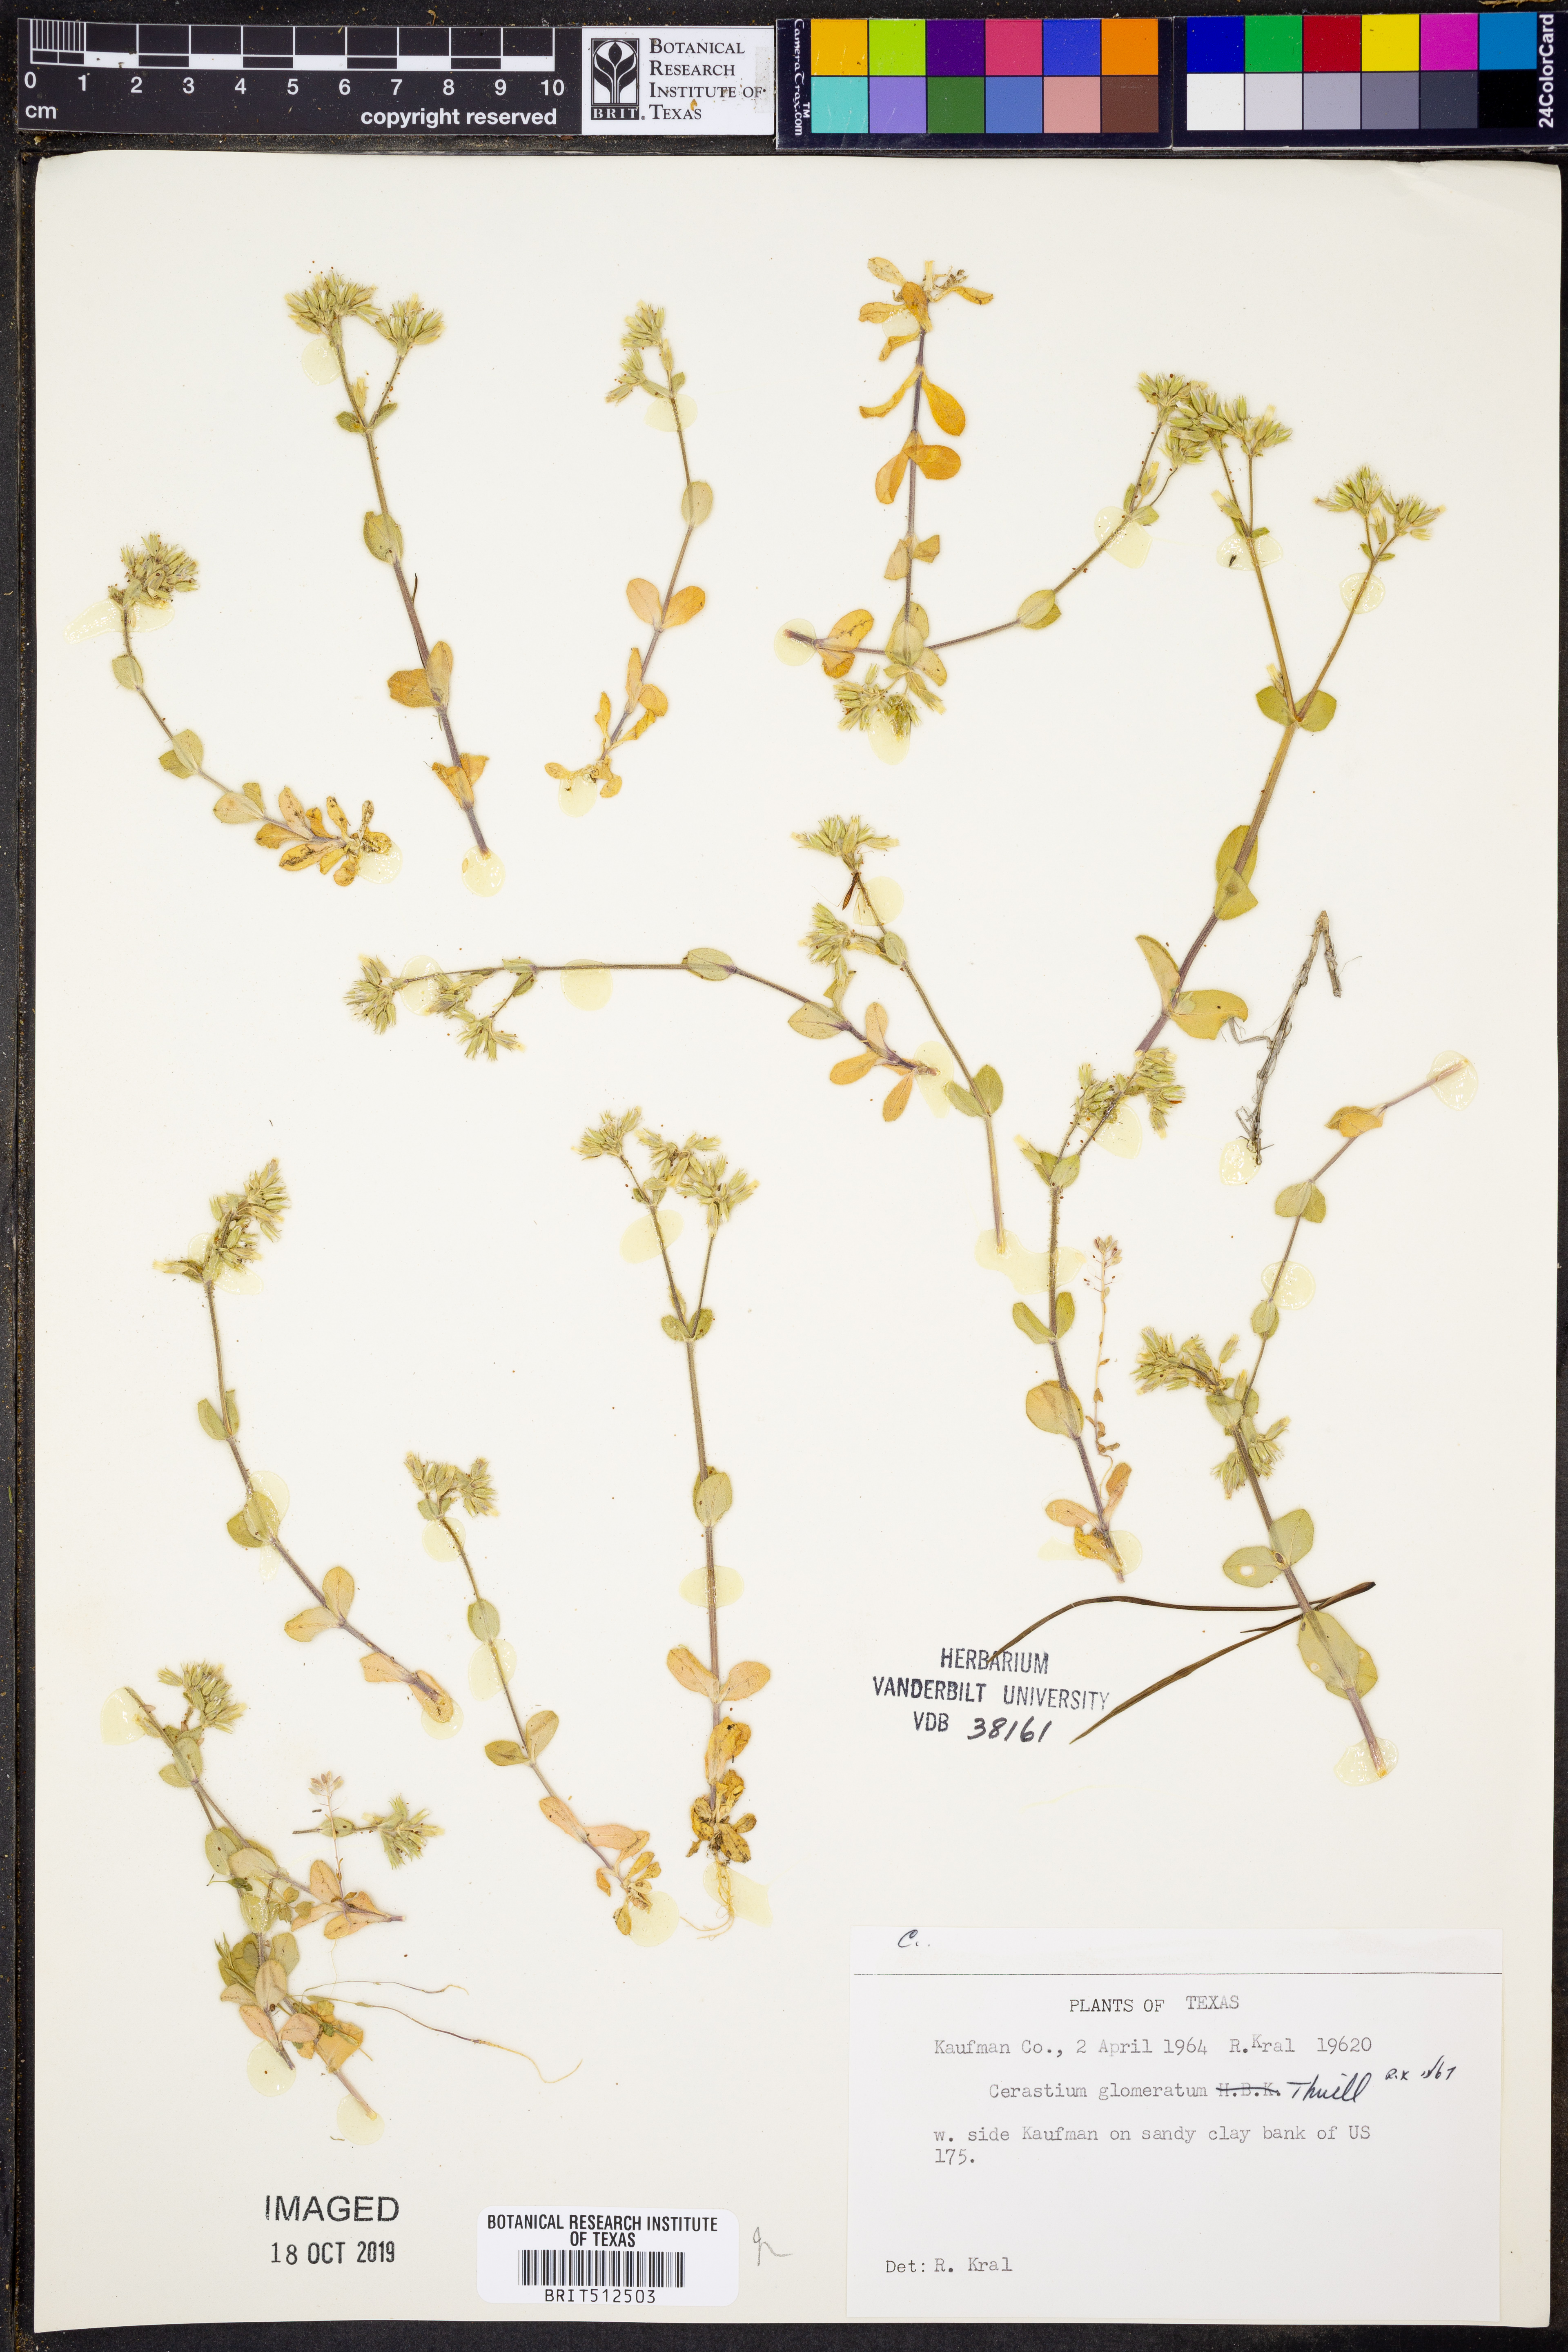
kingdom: Plantae
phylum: Tracheophyta
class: Magnoliopsida
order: Caryophyllales
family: Caryophyllaceae
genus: Cerastium
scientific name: Cerastium glomeratum
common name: Sticky chickweed
